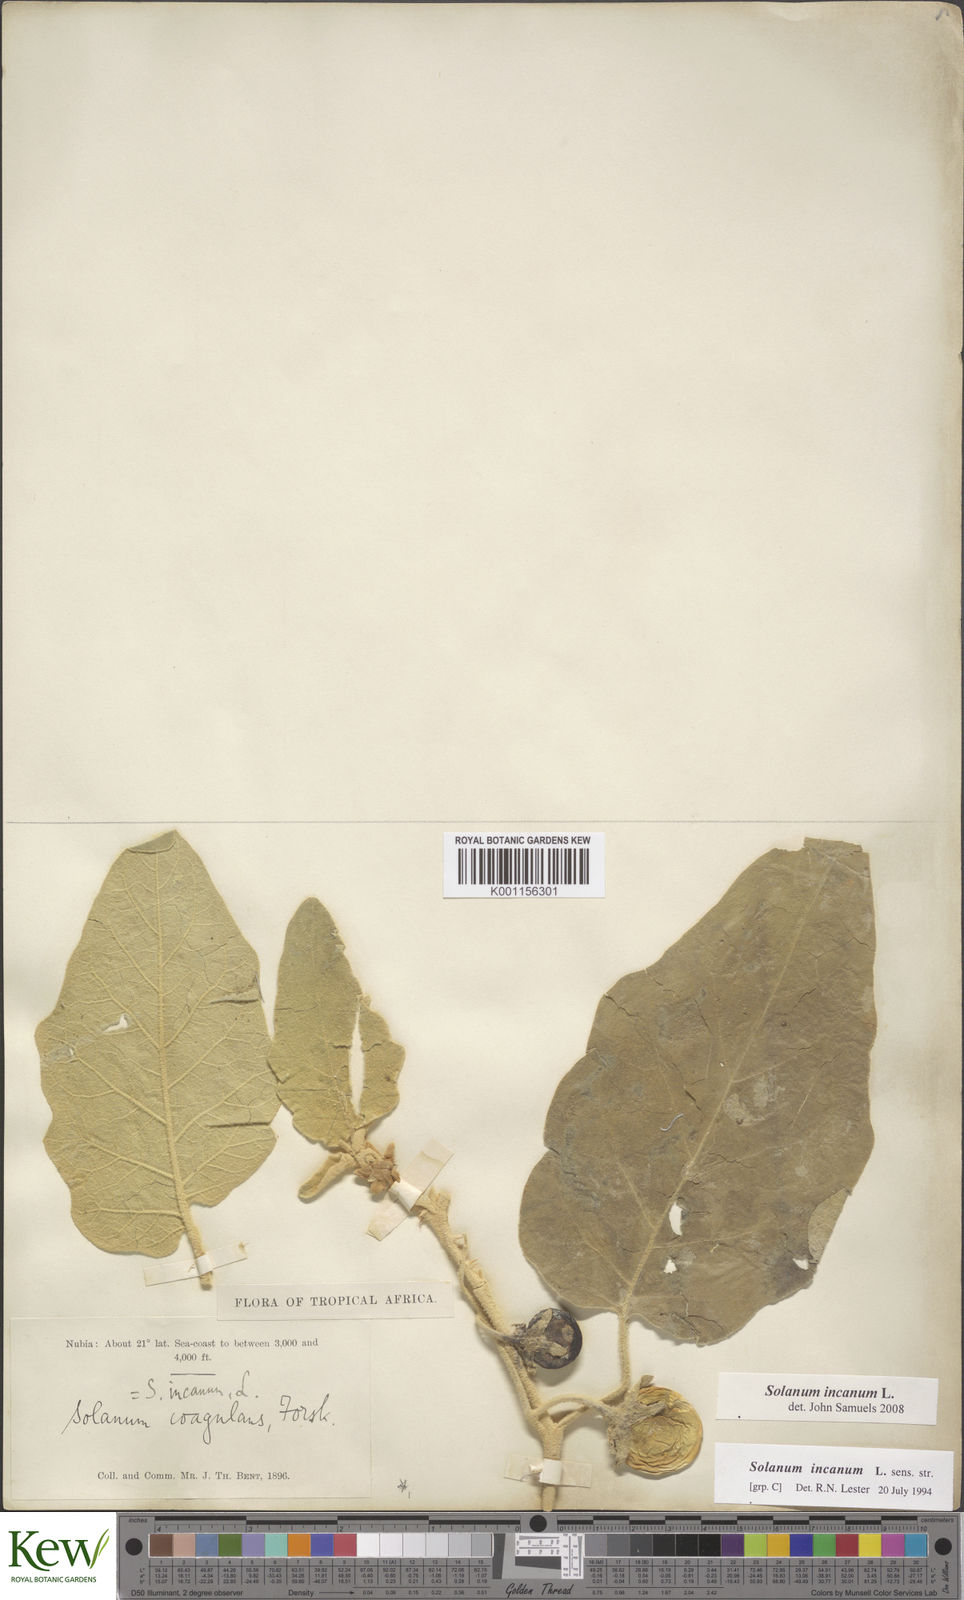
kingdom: Plantae
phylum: Tracheophyta
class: Magnoliopsida
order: Solanales
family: Solanaceae
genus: Solanum
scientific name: Solanum incanum
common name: Bitter apple
